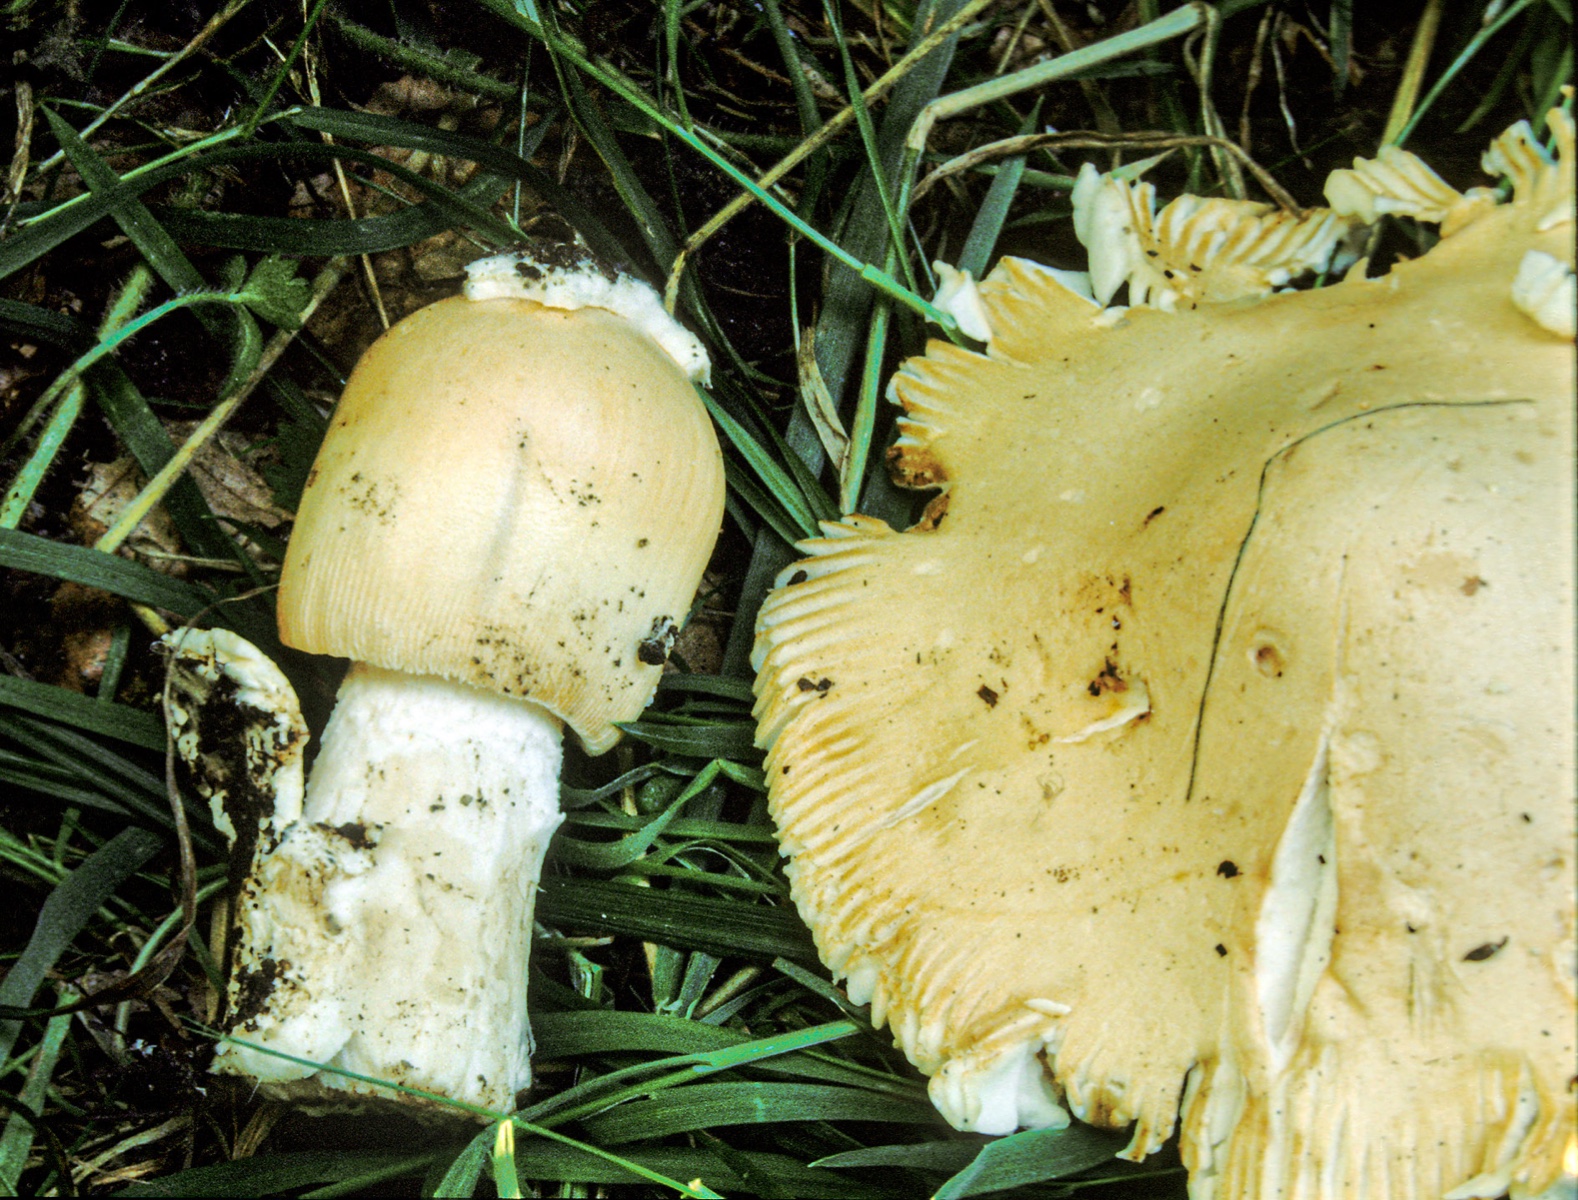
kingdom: Fungi
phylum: Basidiomycota
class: Agaricomycetes
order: Agaricales
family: Amanitaceae
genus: Amanita
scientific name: Amanita
